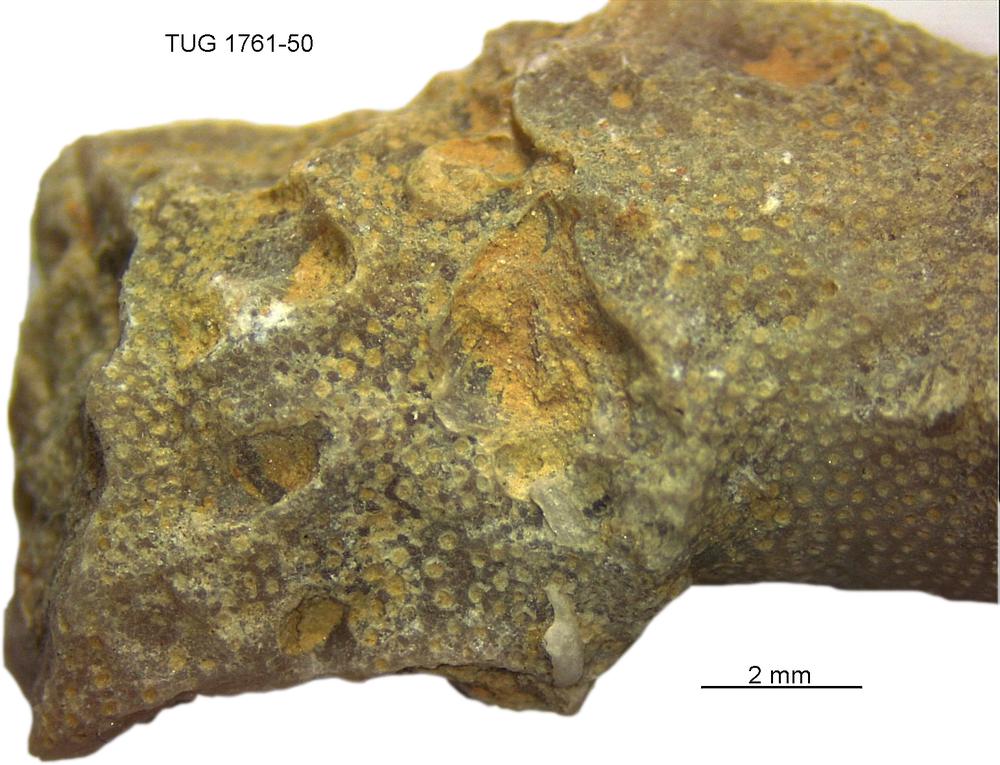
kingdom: Animalia
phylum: Bryozoa
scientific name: Bryozoa
